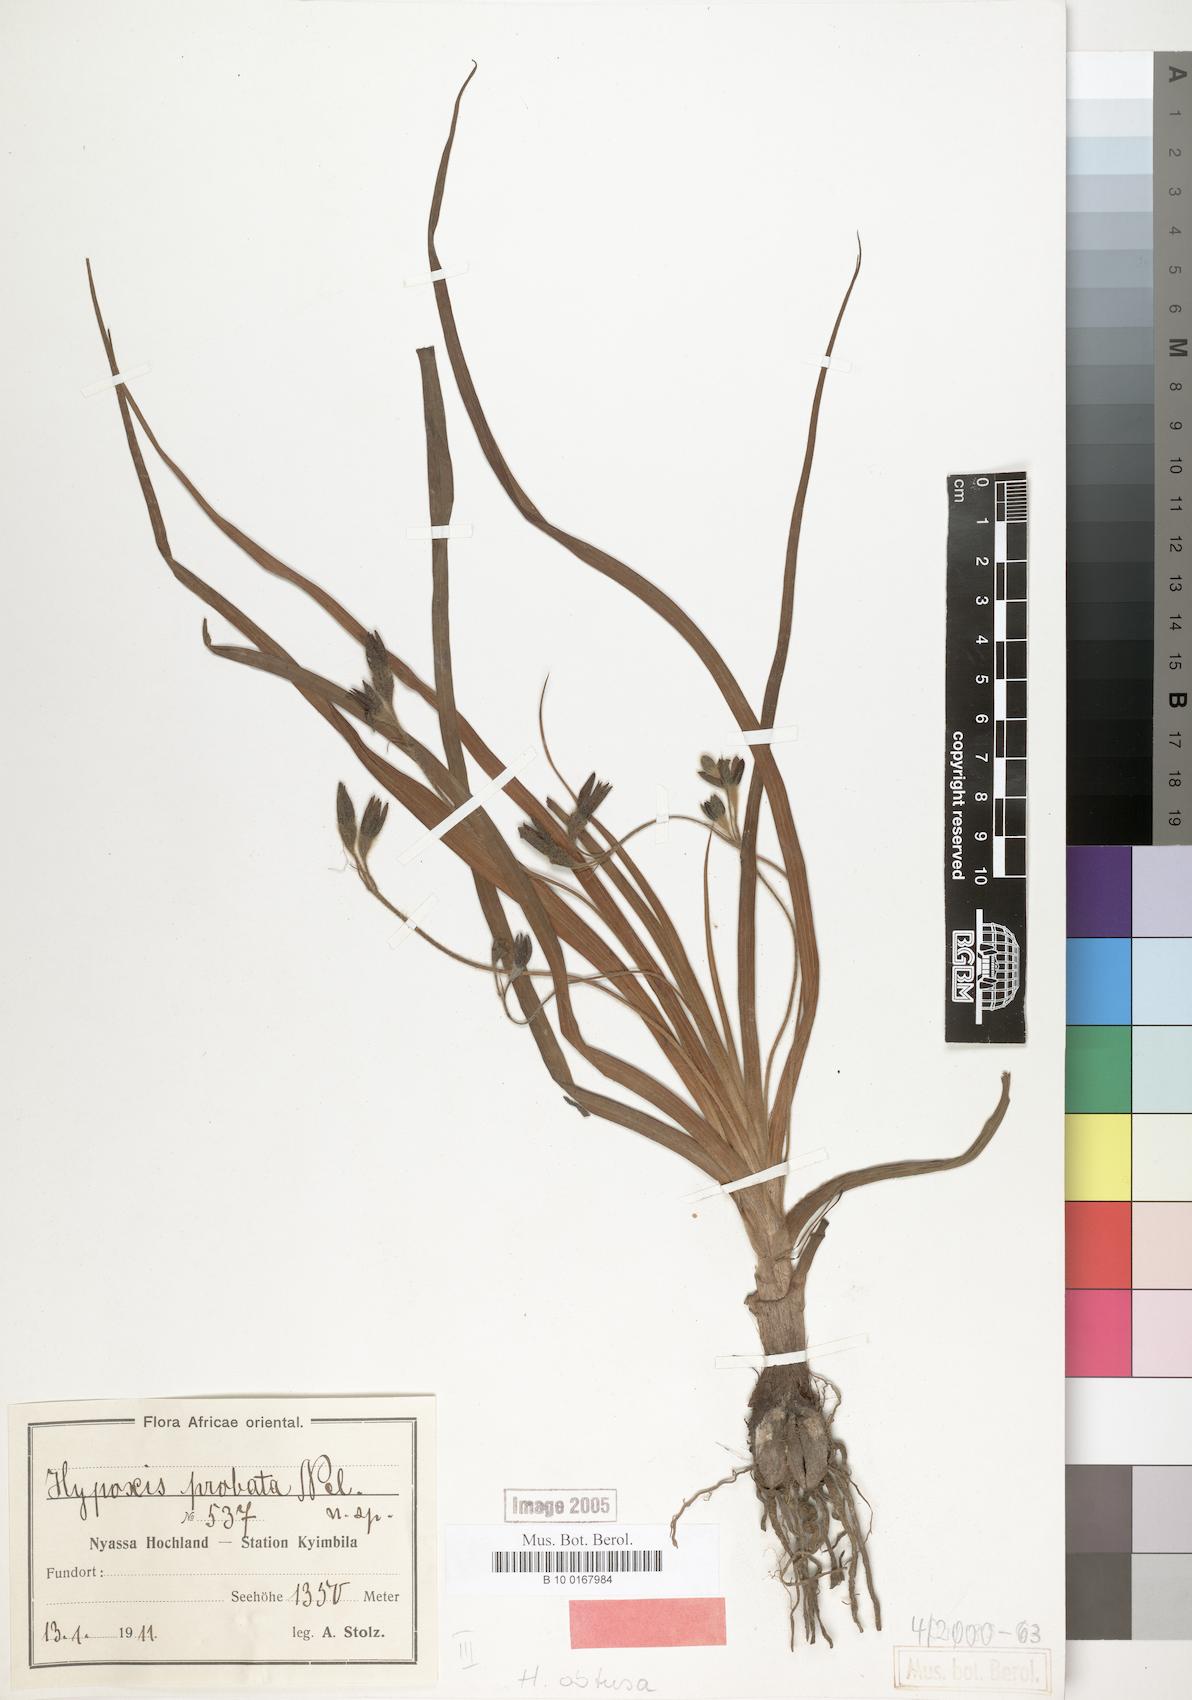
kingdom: Plantae
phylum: Tracheophyta
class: Liliopsida
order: Asparagales
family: Hypoxidaceae
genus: Hypoxis
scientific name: Hypoxis
